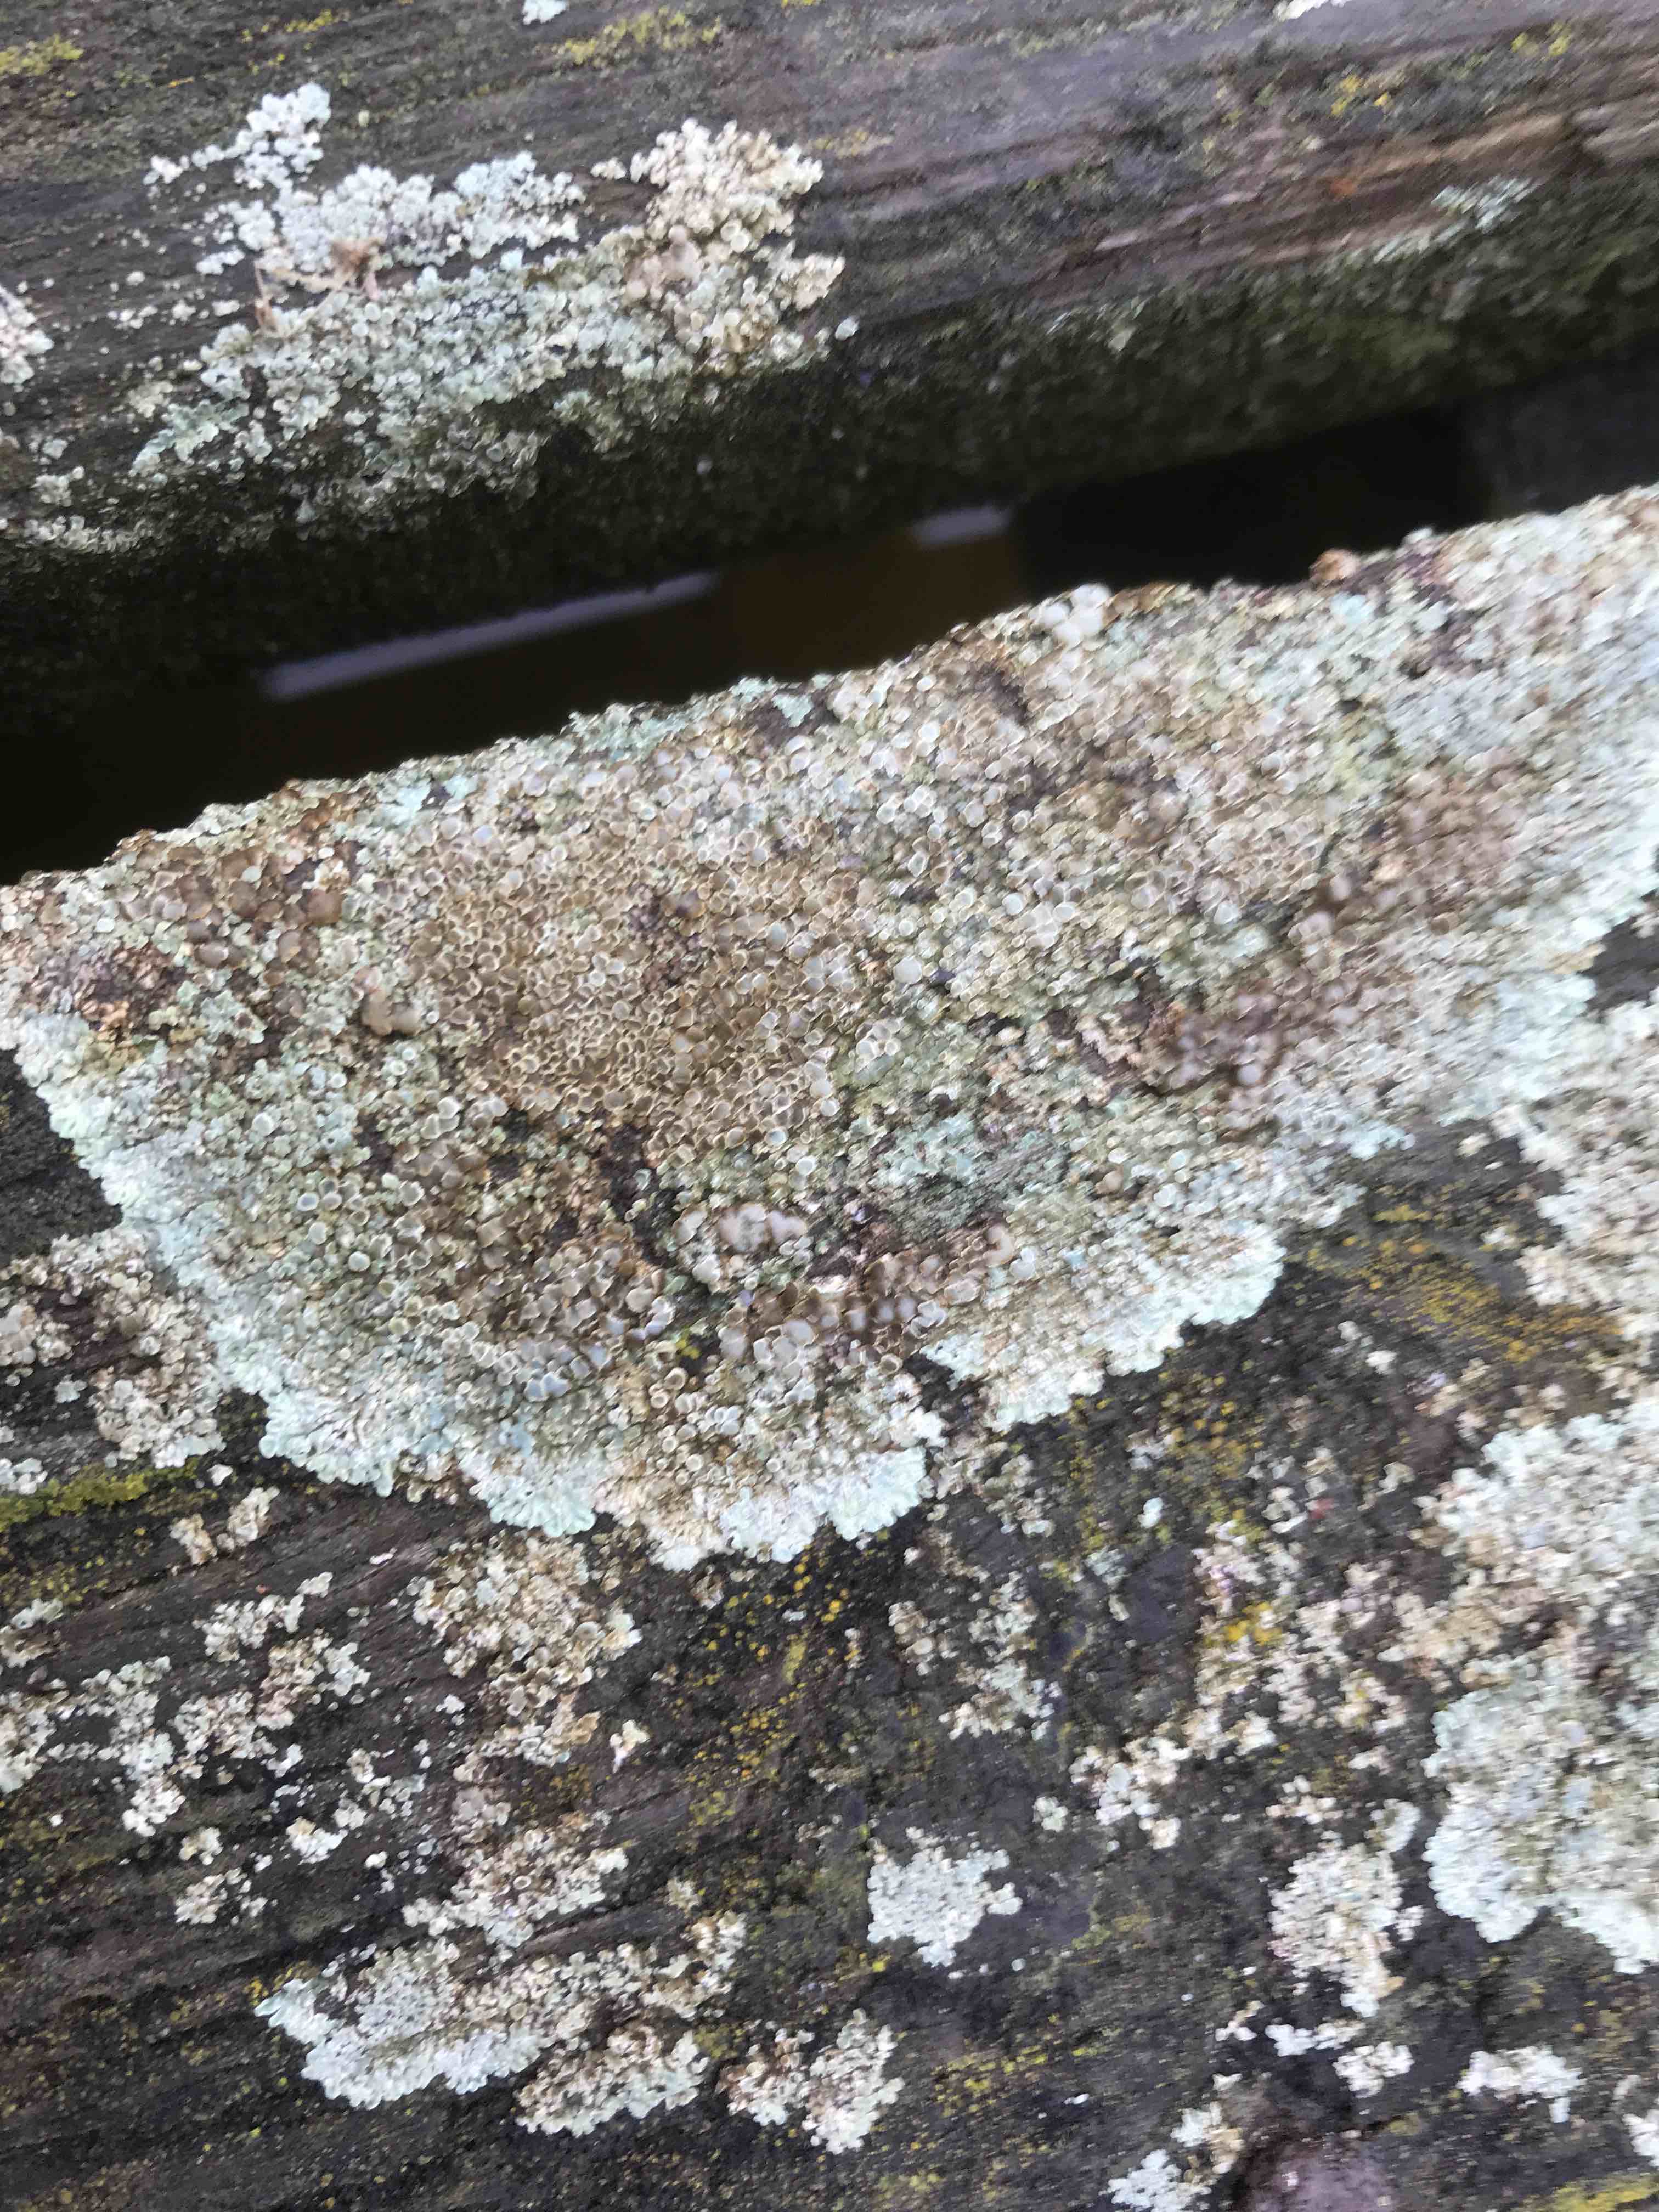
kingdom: Fungi
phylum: Ascomycota
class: Lecanoromycetes
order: Lecanorales
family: Lecanoraceae
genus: Protoparmeliopsis
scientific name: Protoparmeliopsis muralis
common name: randfliget kantskivelav
